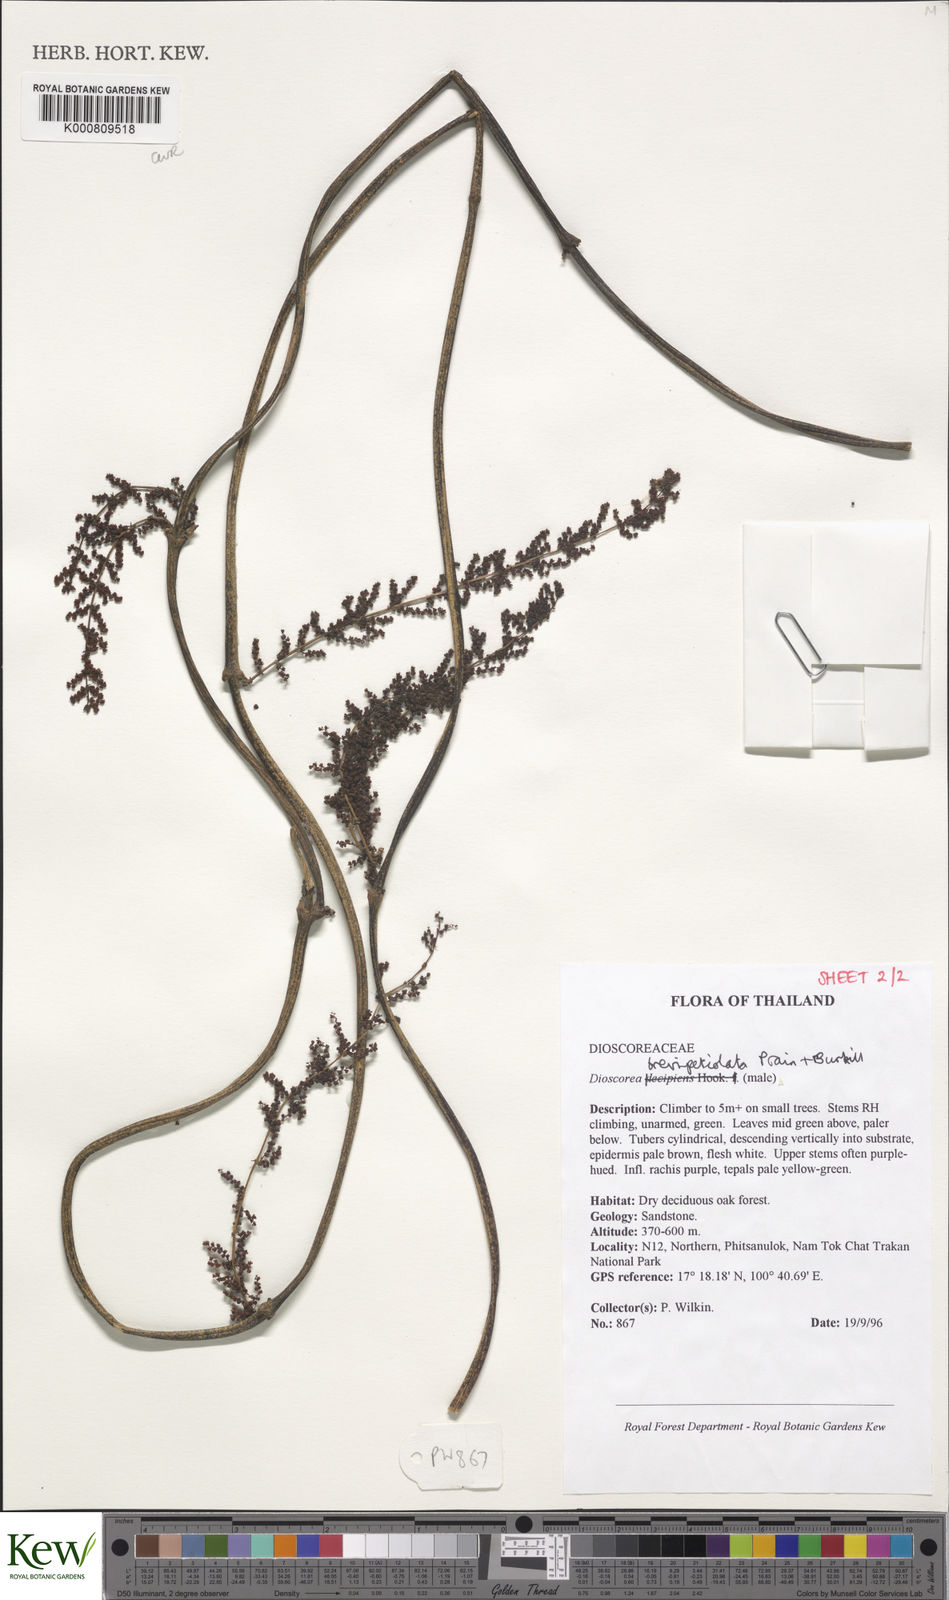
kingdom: Plantae
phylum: Tracheophyta
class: Liliopsida
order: Dioscoreales
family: Dioscoreaceae
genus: Dioscorea
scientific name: Dioscorea brevipetiolata
